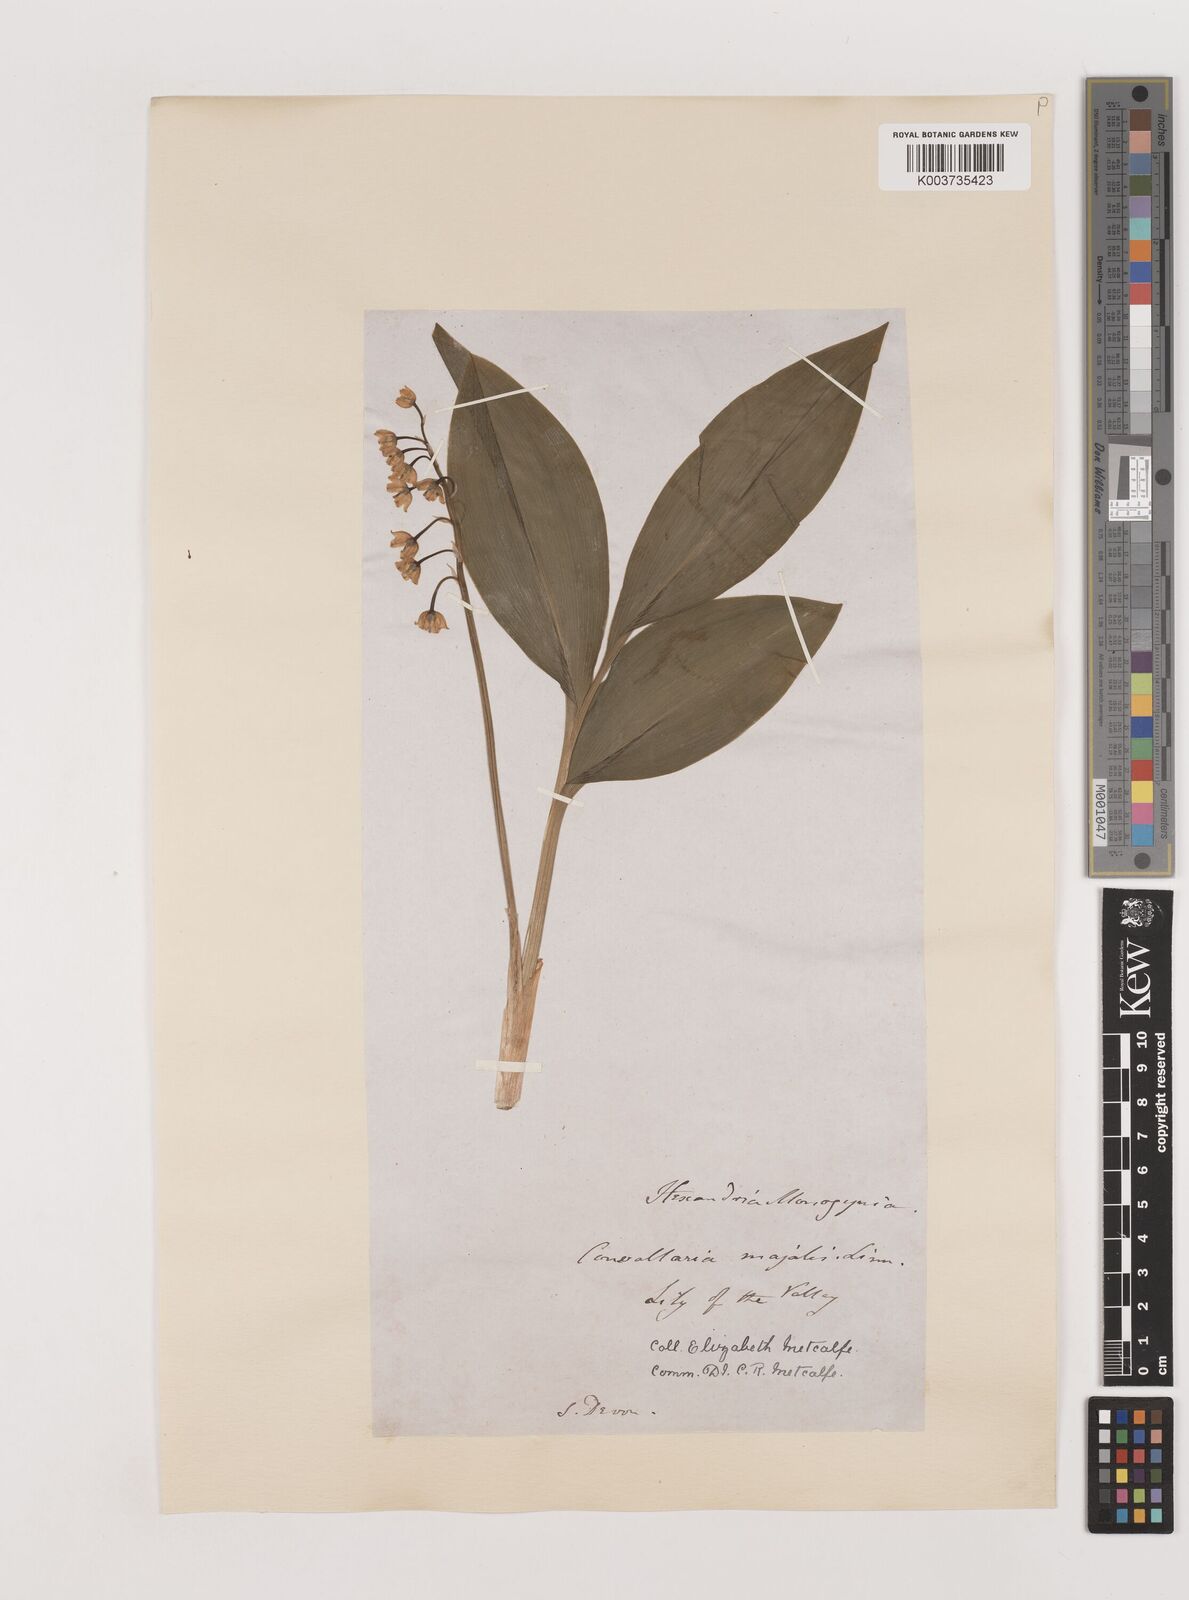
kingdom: Plantae
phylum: Tracheophyta
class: Liliopsida
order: Asparagales
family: Asparagaceae
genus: Convallaria
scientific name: Convallaria majalis
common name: Lily-of-the-valley
